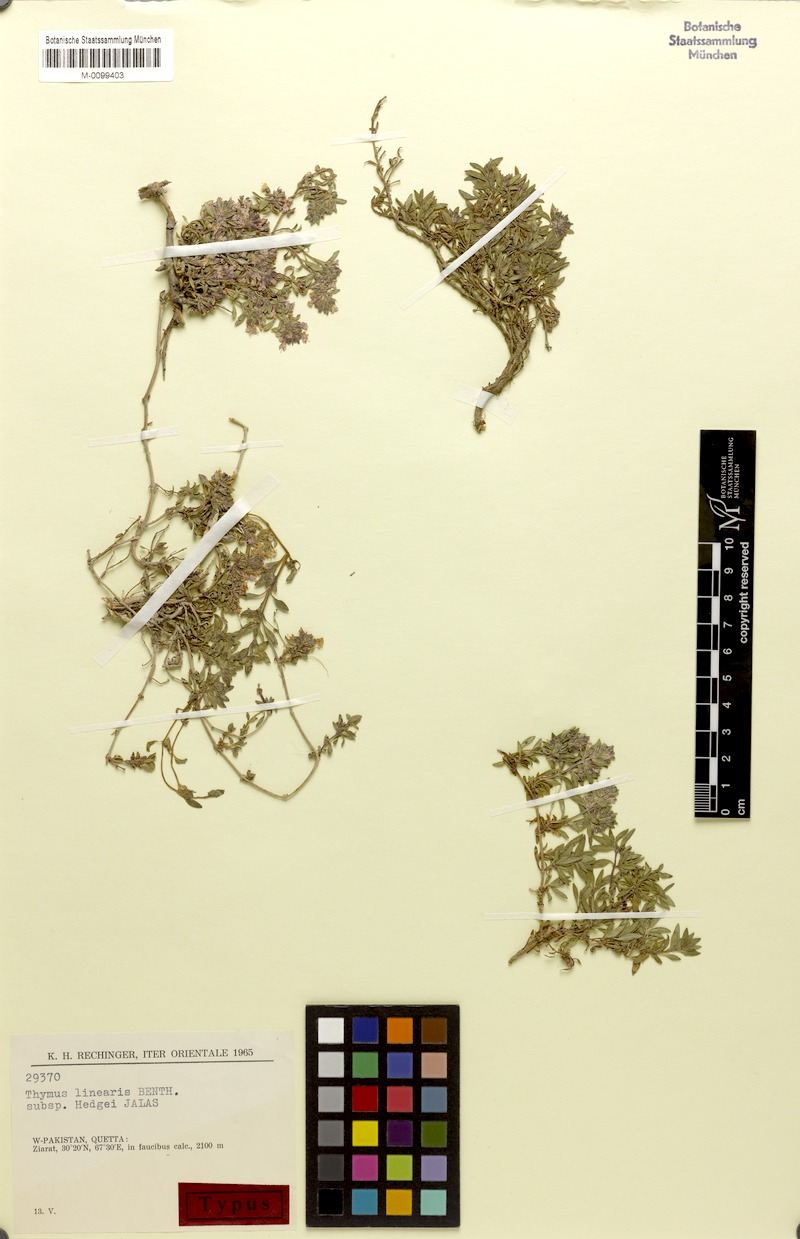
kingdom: Plantae
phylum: Tracheophyta
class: Magnoliopsida
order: Lamiales
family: Lamiaceae
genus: Thymus
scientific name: Thymus linearis
